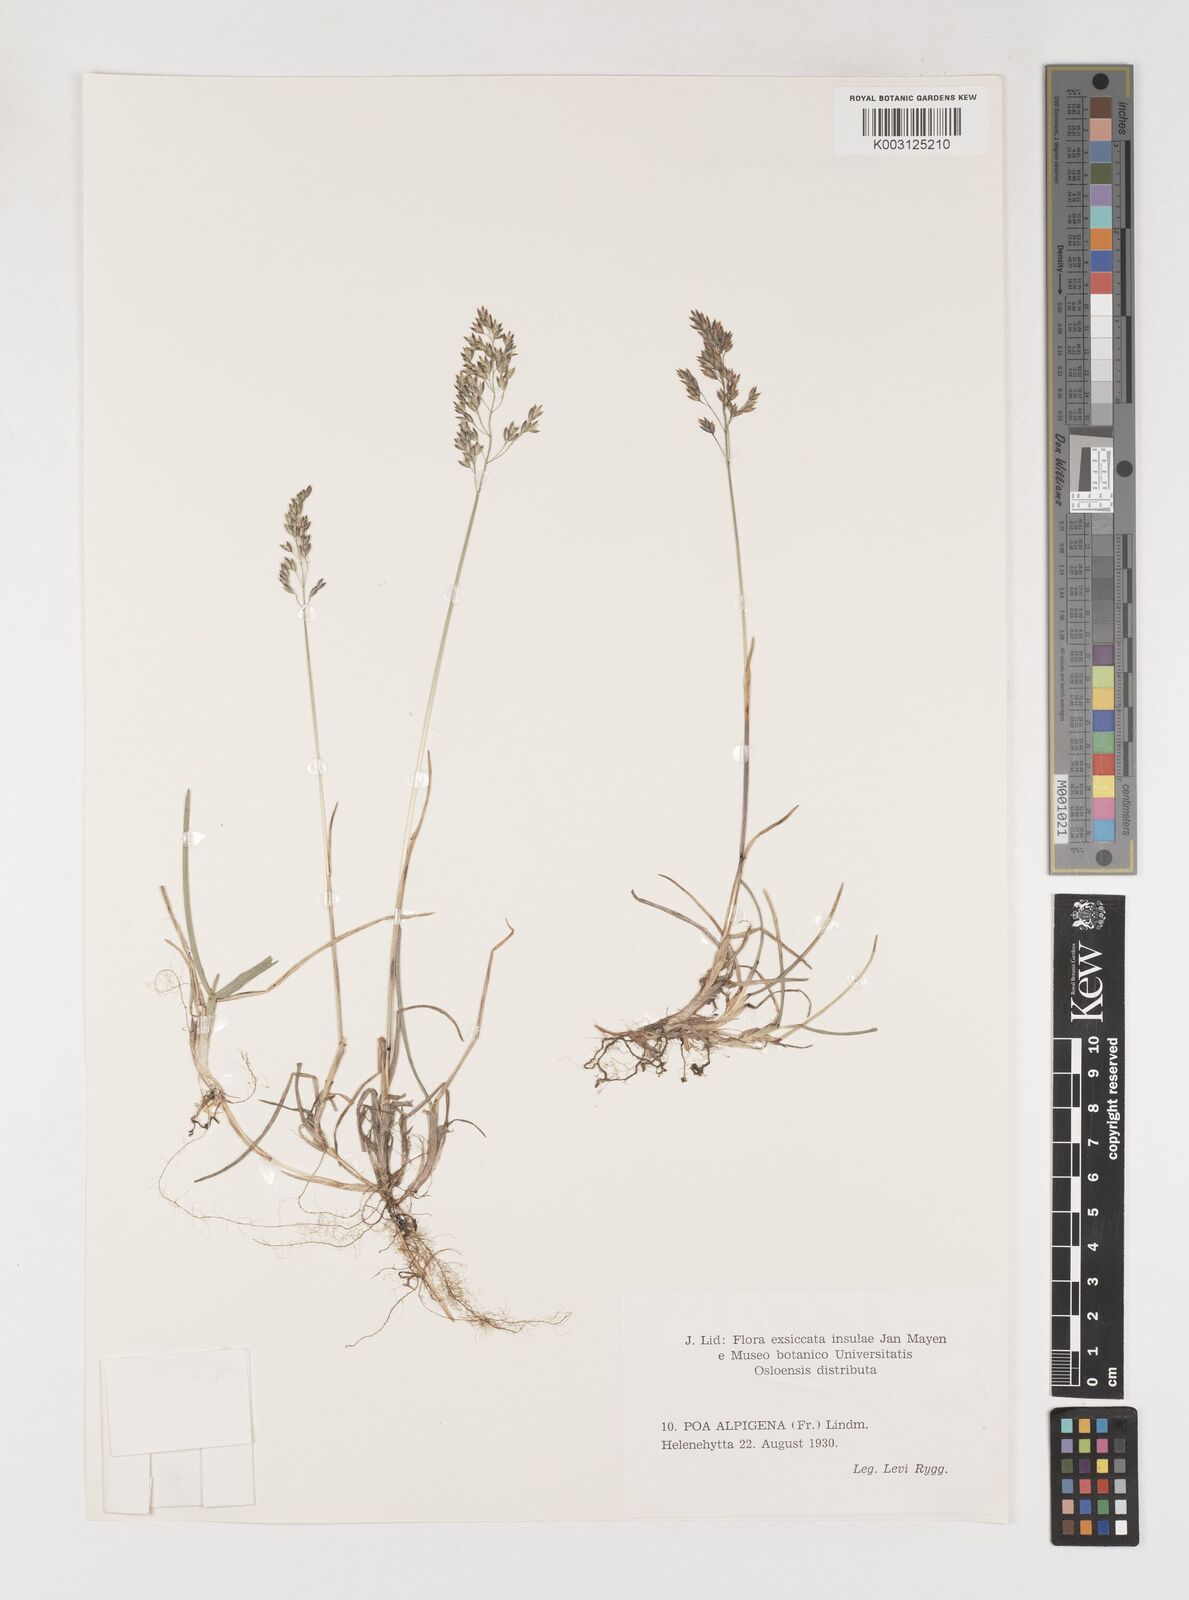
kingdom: Plantae
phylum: Tracheophyta
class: Liliopsida
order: Poales
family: Poaceae
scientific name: Poaceae
